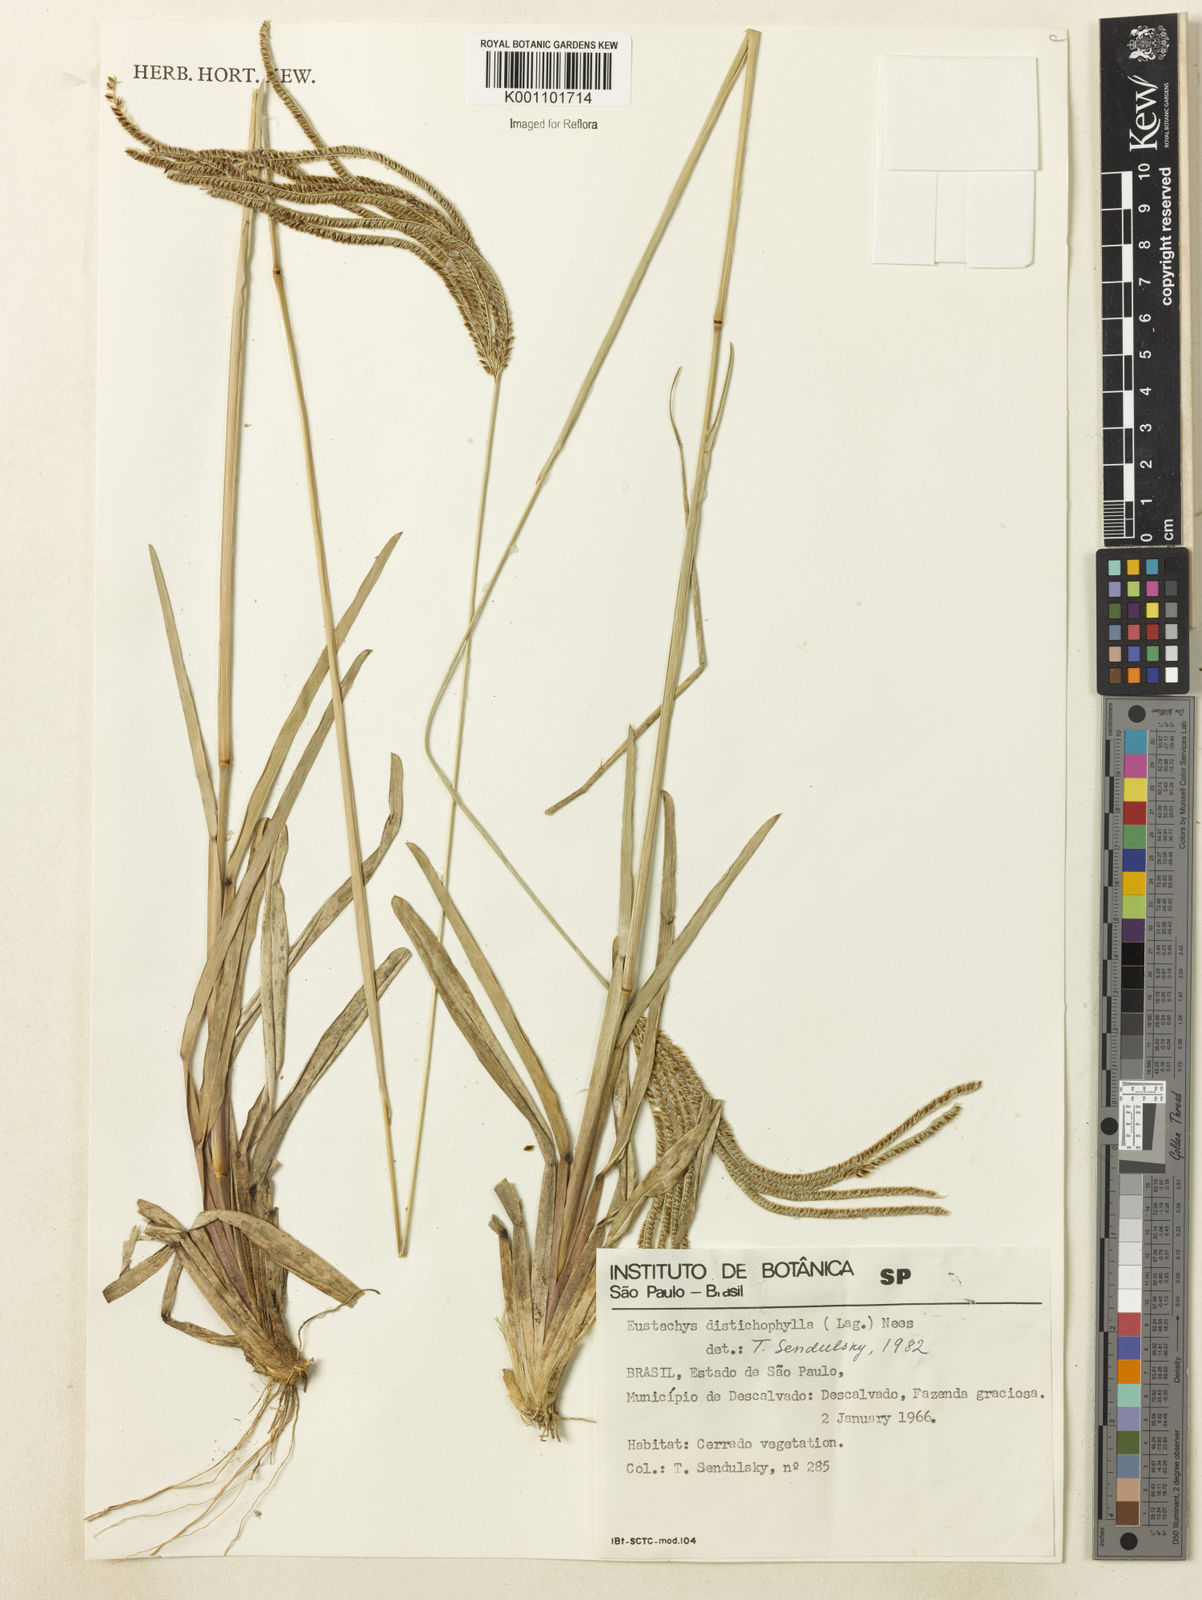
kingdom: Plantae
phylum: Tracheophyta
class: Liliopsida
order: Poales
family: Poaceae
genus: Eustachys
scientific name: Eustachys distichophylla
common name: Weeping fingergrass
